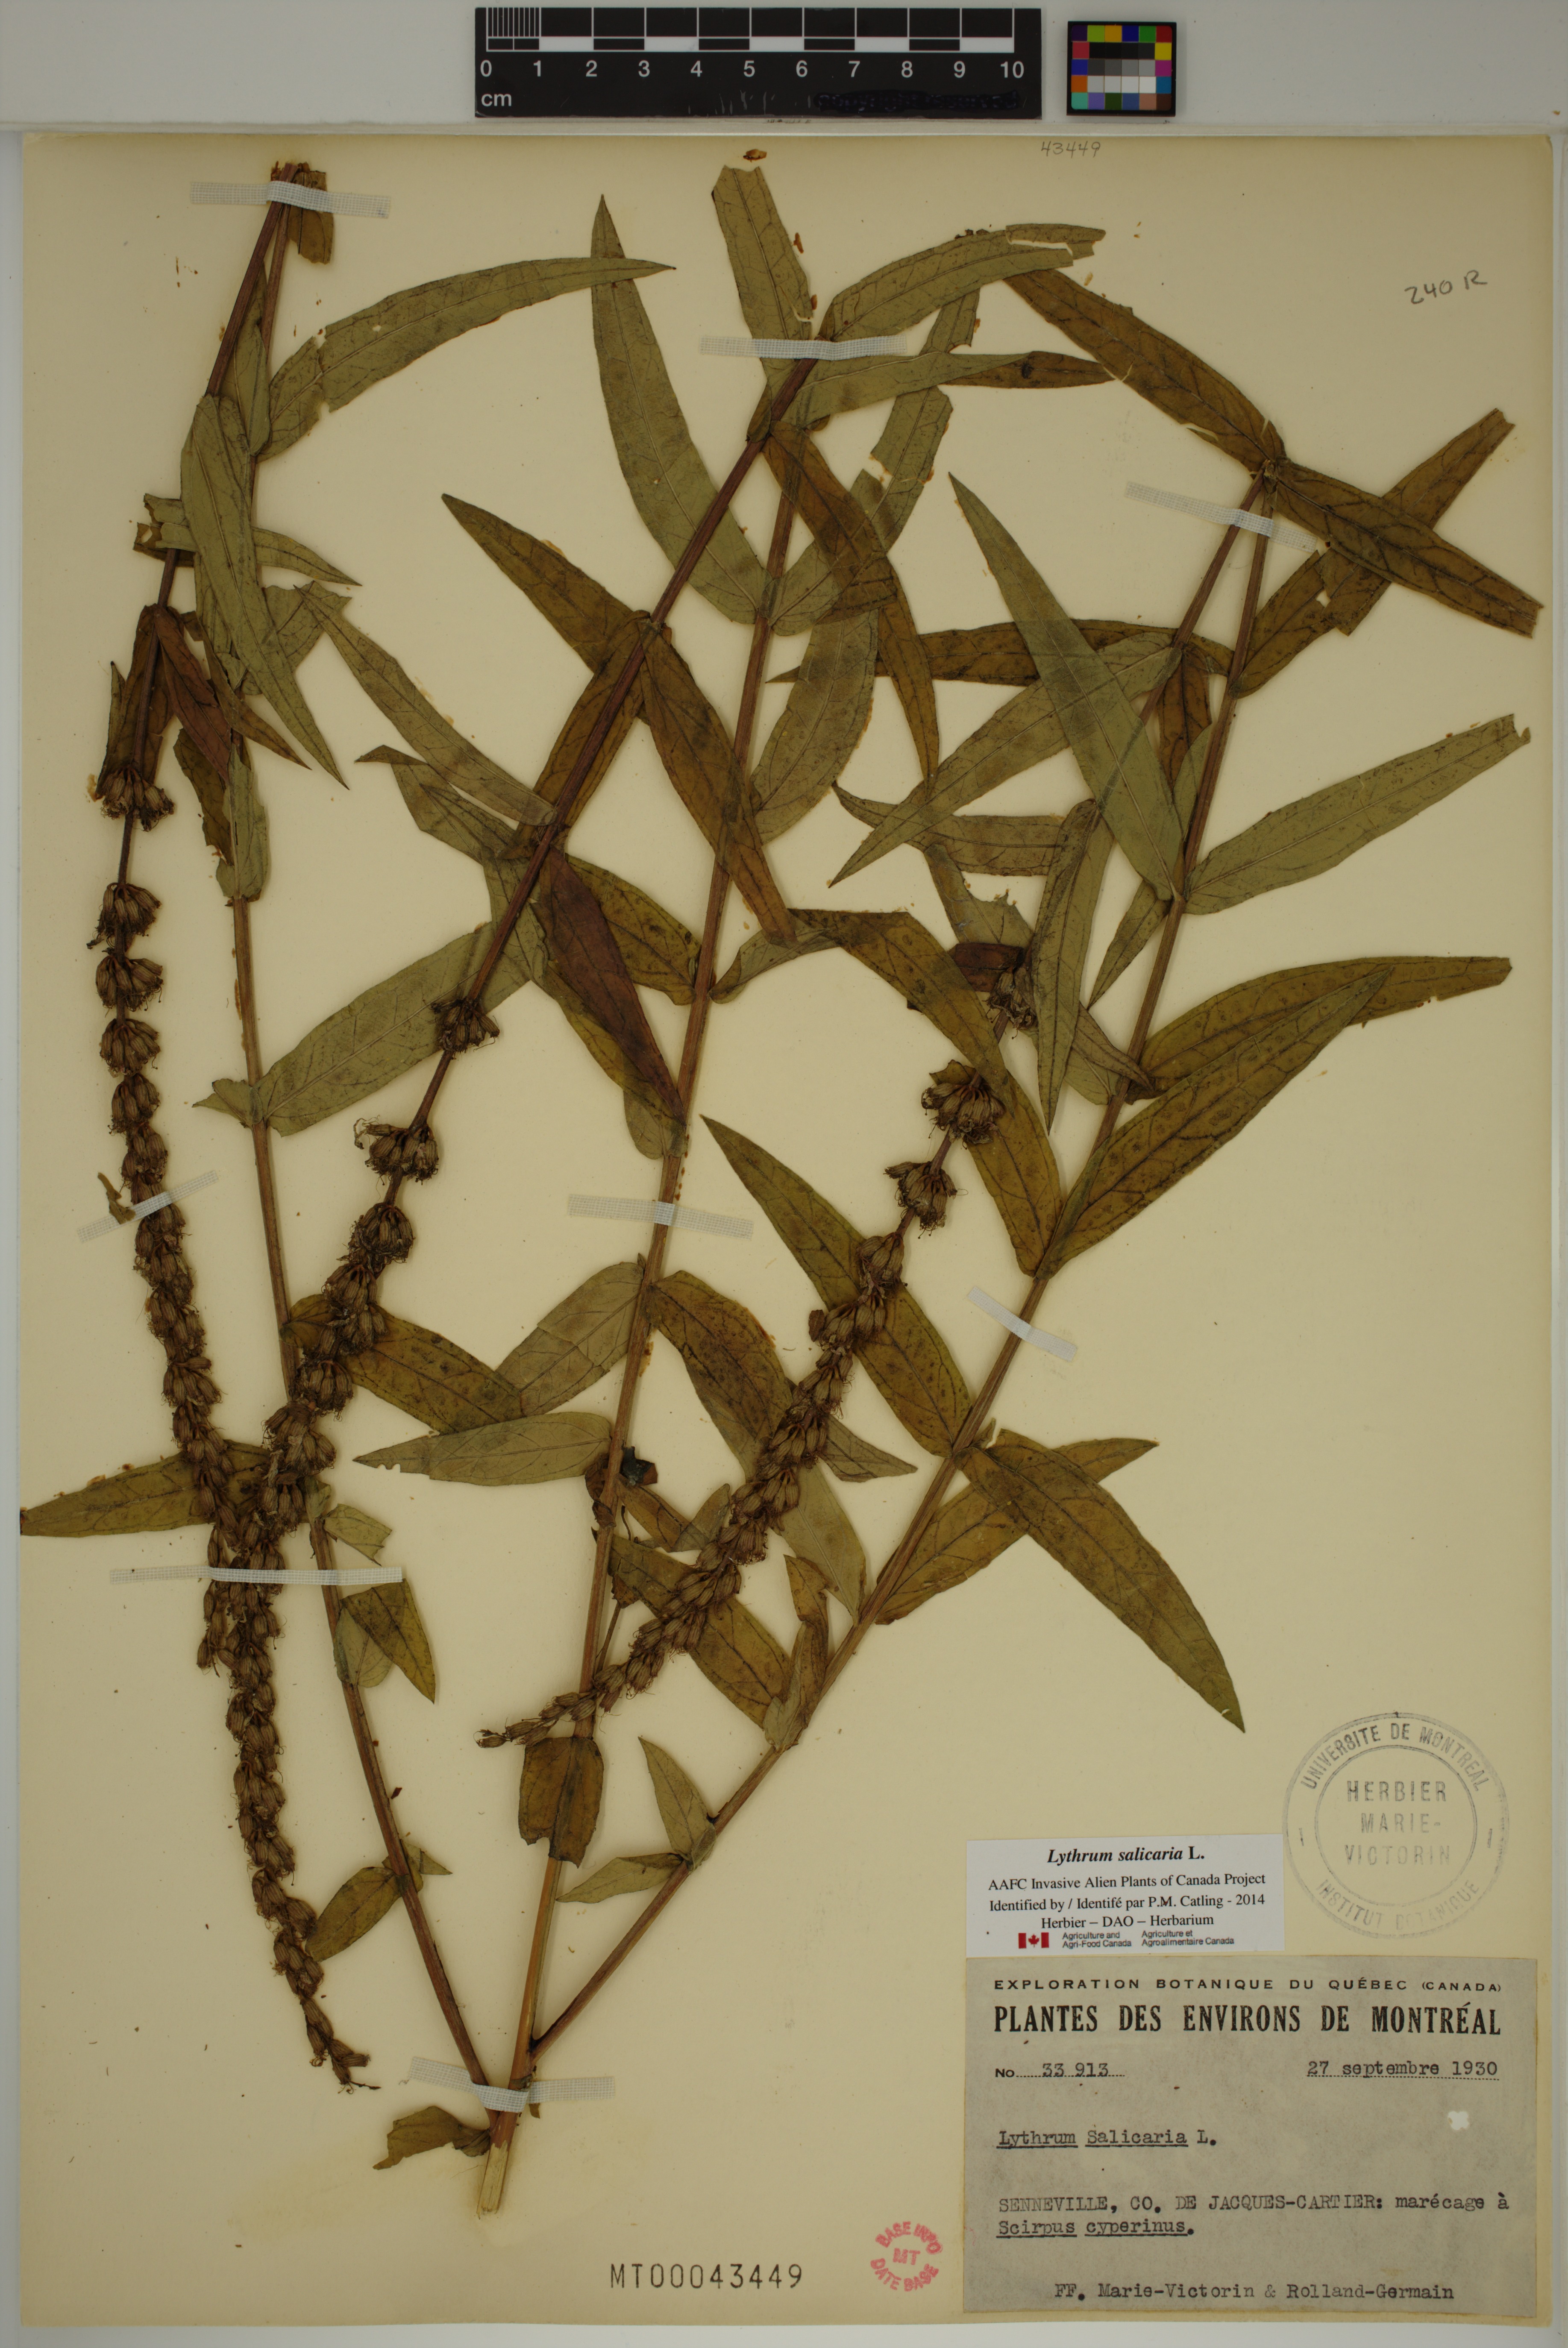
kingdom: Plantae
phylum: Tracheophyta
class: Magnoliopsida
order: Myrtales
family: Lythraceae
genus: Lythrum
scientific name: Lythrum salicaria
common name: Purple loosestrife
